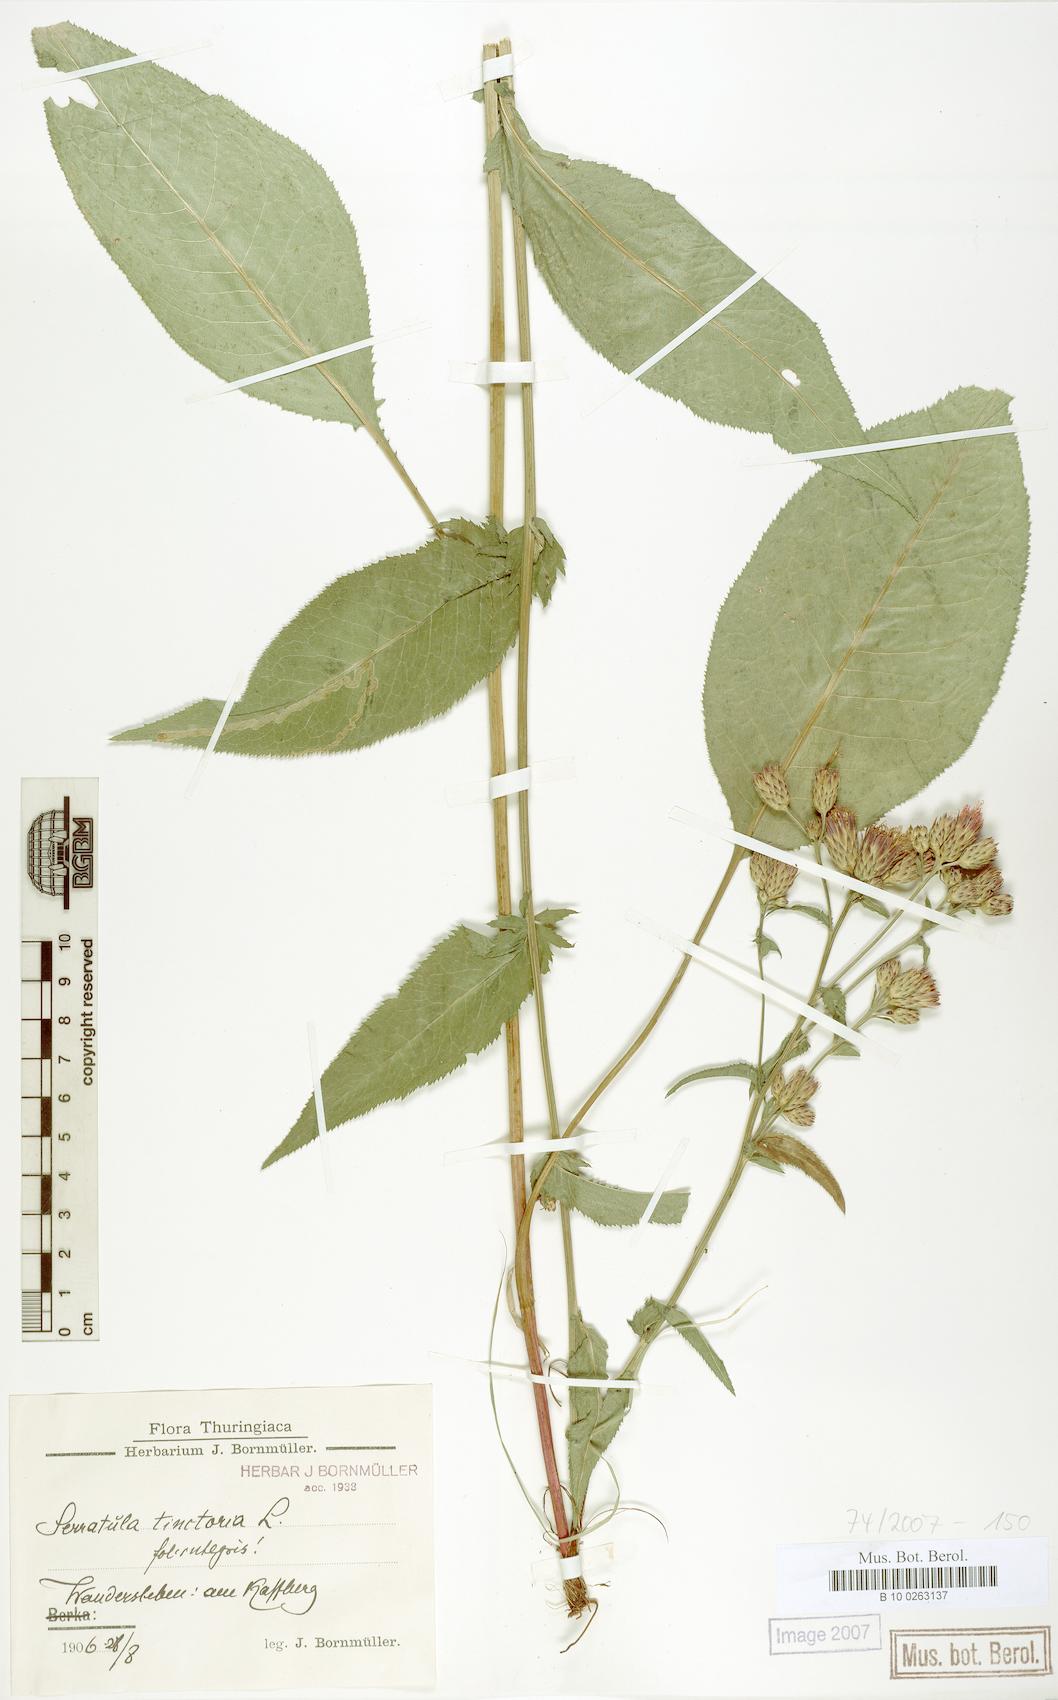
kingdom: Plantae
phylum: Tracheophyta
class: Magnoliopsida
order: Asterales
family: Asteraceae
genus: Serratula
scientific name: Serratula tinctoria
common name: Saw-wort
